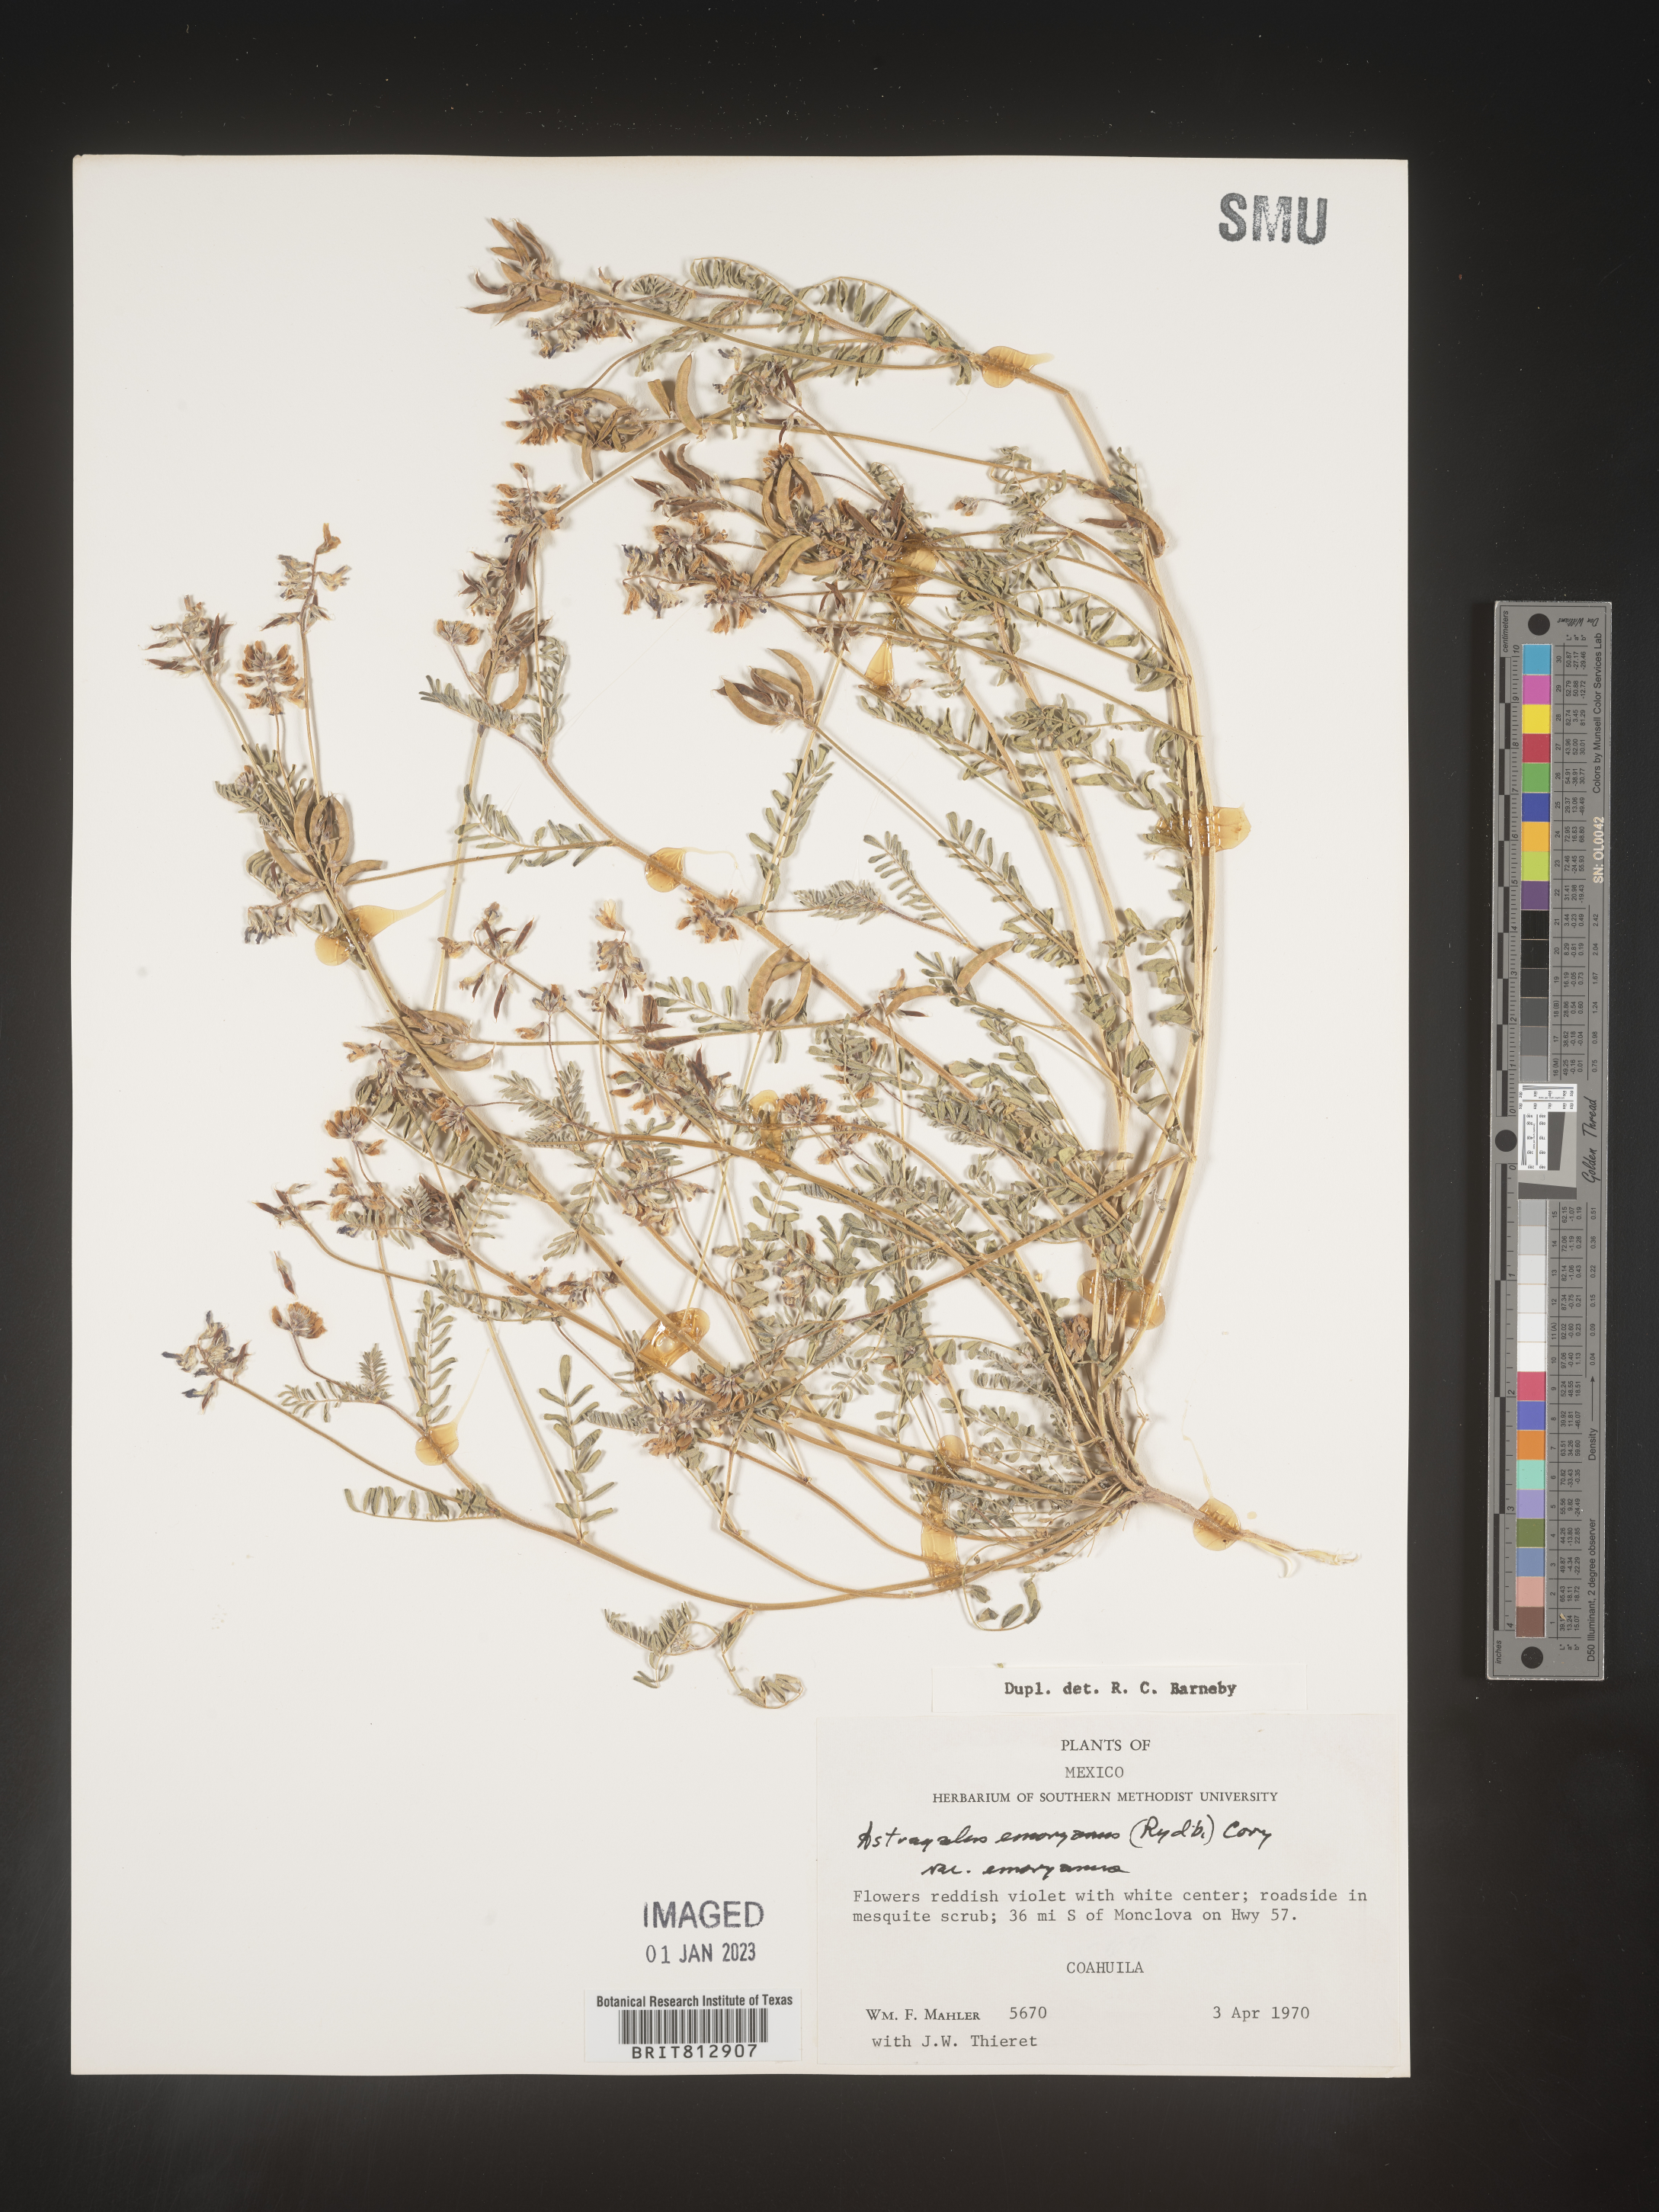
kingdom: Plantae
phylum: Tracheophyta
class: Magnoliopsida
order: Fabales
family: Fabaceae
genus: Astragalus
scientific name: Astragalus
